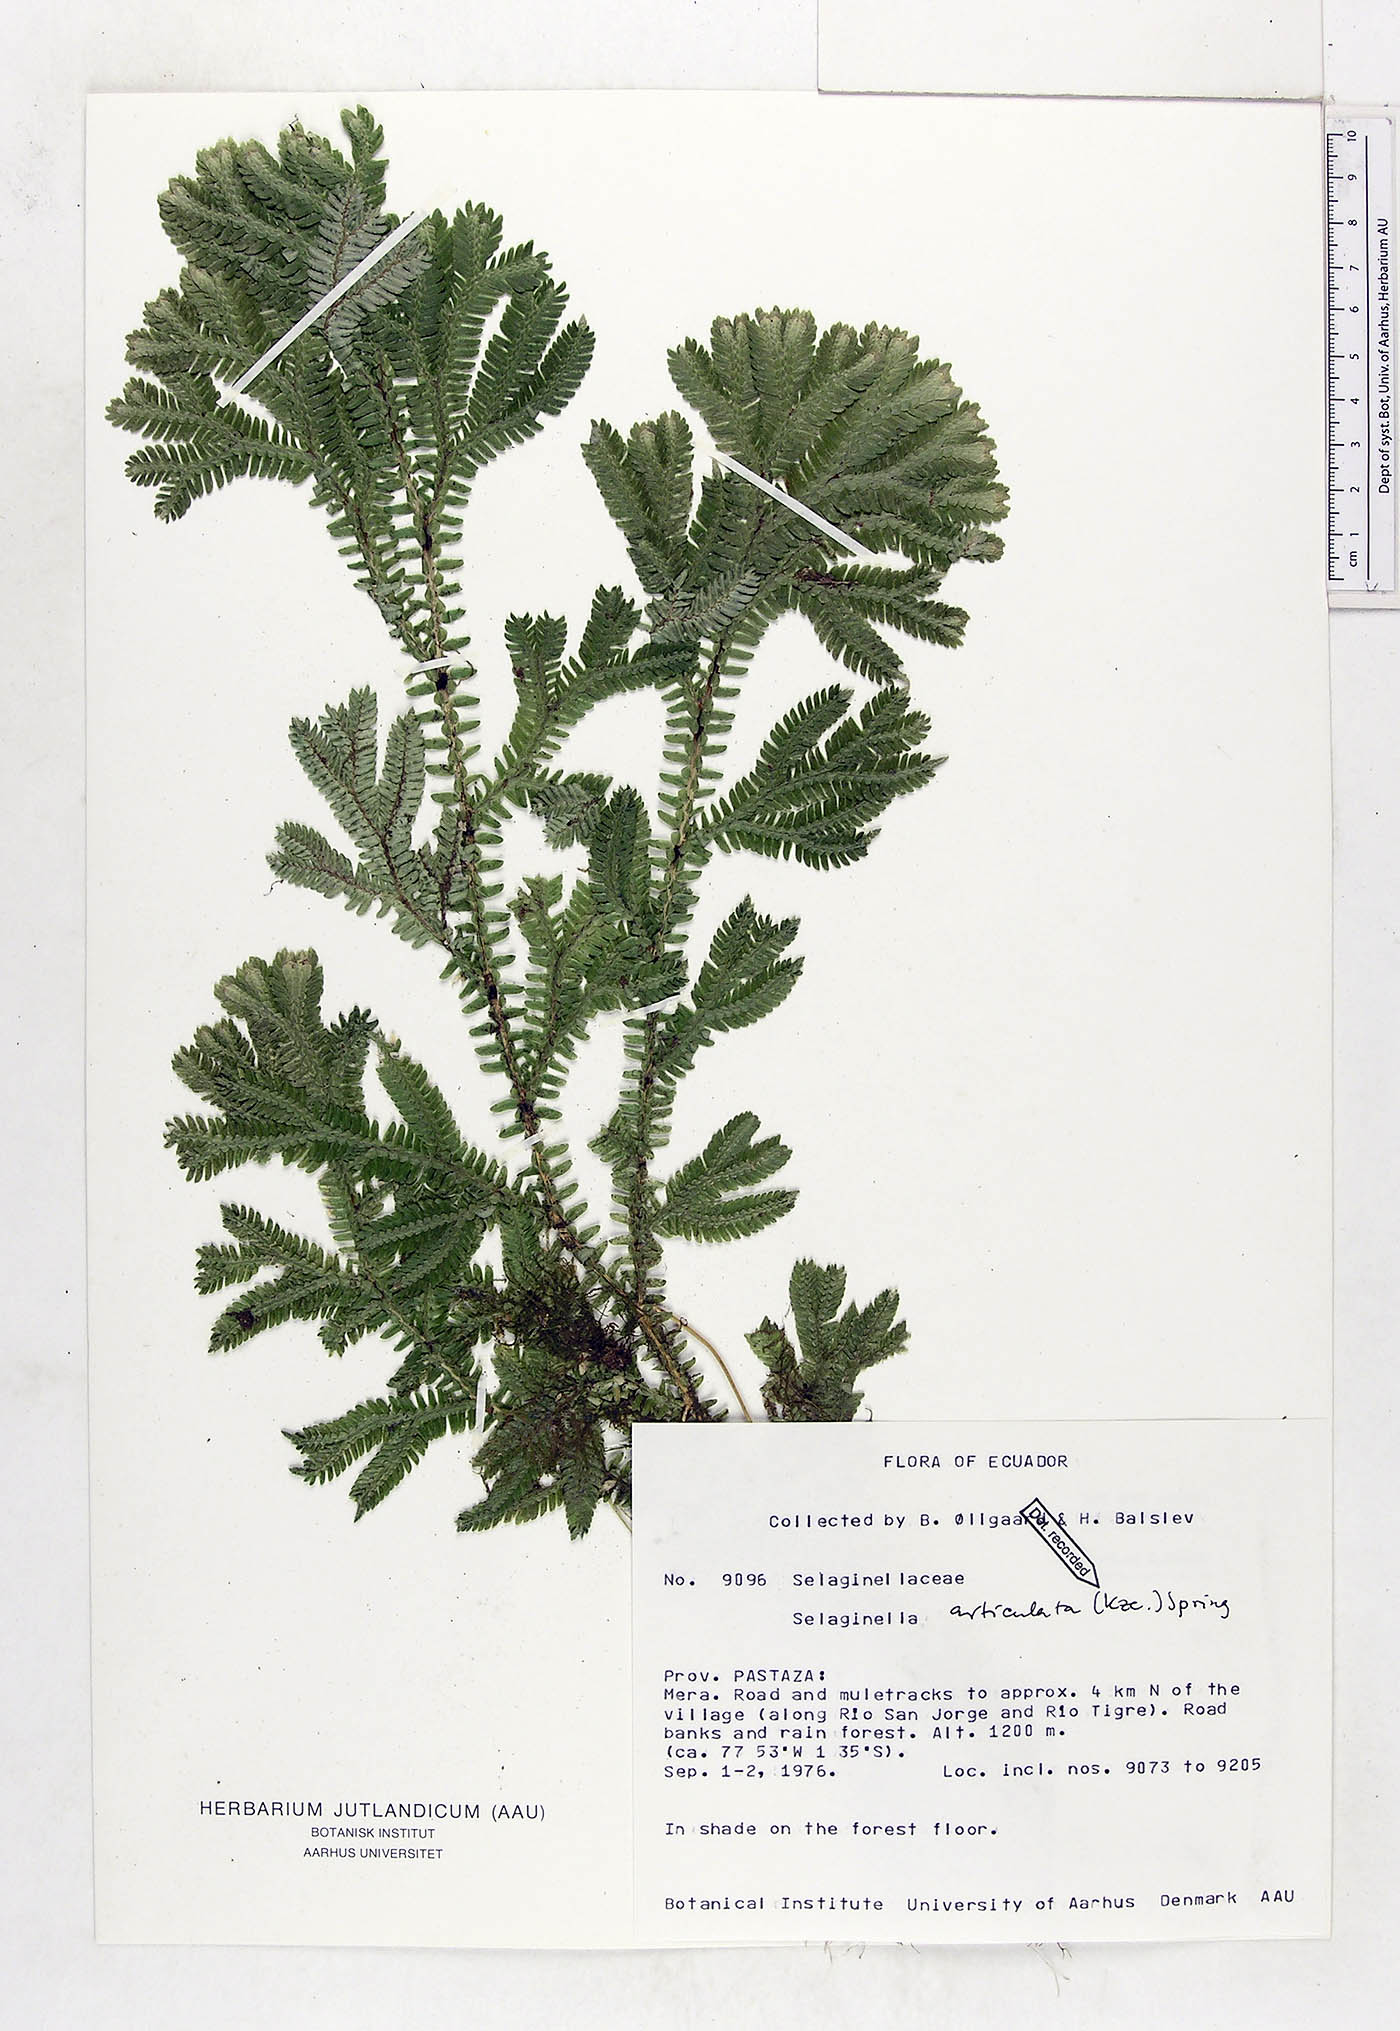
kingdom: Plantae
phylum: Tracheophyta
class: Lycopodiopsida
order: Selaginellales
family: Selaginellaceae
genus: Selaginella
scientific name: Selaginella articulata
